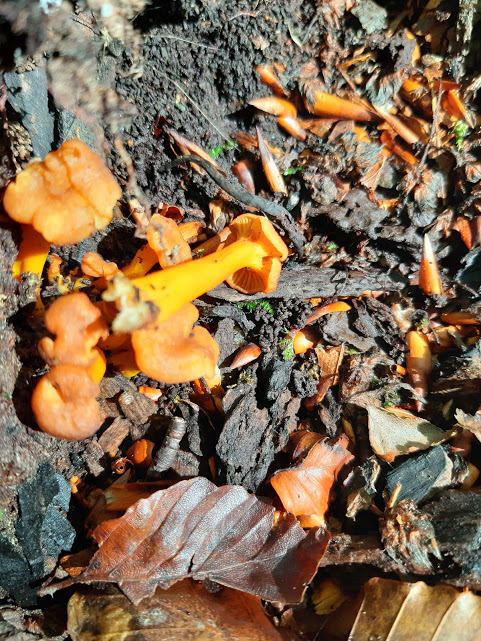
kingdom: Fungi
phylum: Basidiomycota
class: Agaricomycetes
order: Cantharellales
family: Hydnaceae
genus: Craterellus
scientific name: Craterellus tubaeformis
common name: tragt-kantarel
